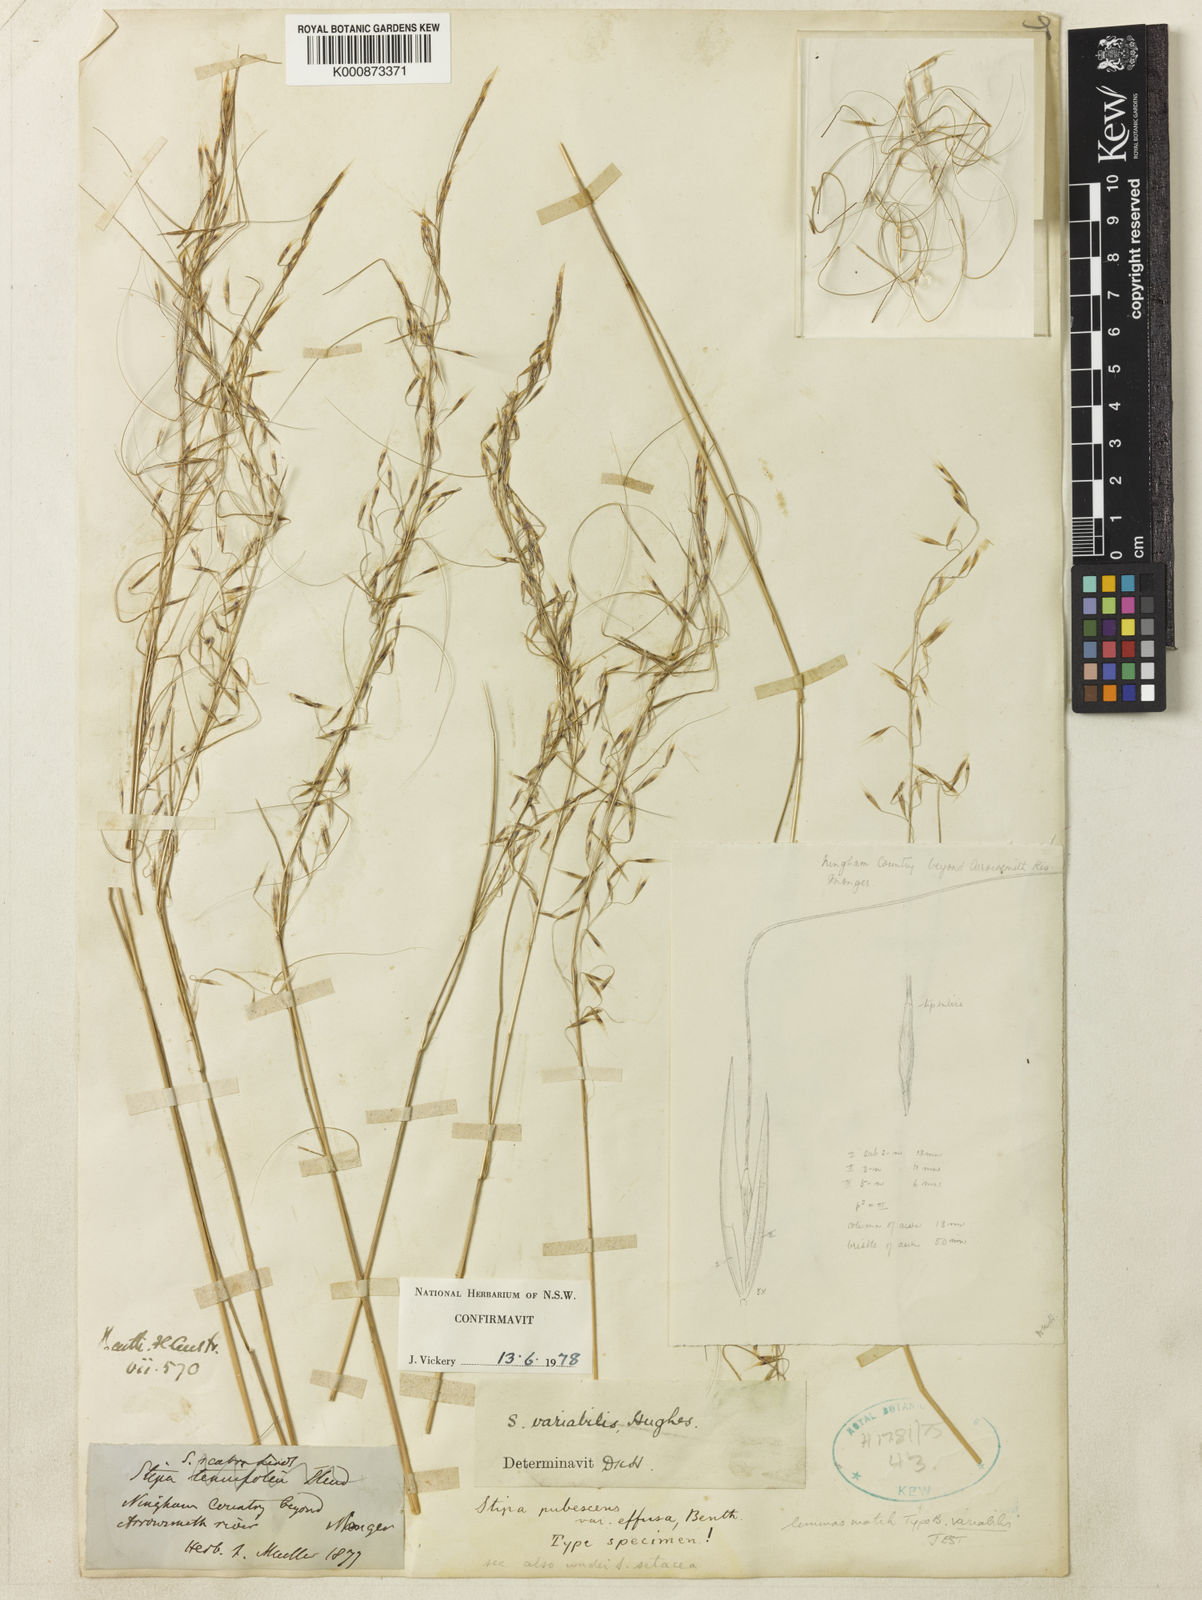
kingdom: Plantae
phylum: Tracheophyta
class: Liliopsida
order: Poales
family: Poaceae
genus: Austrostipa
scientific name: Austrostipa variabilis
